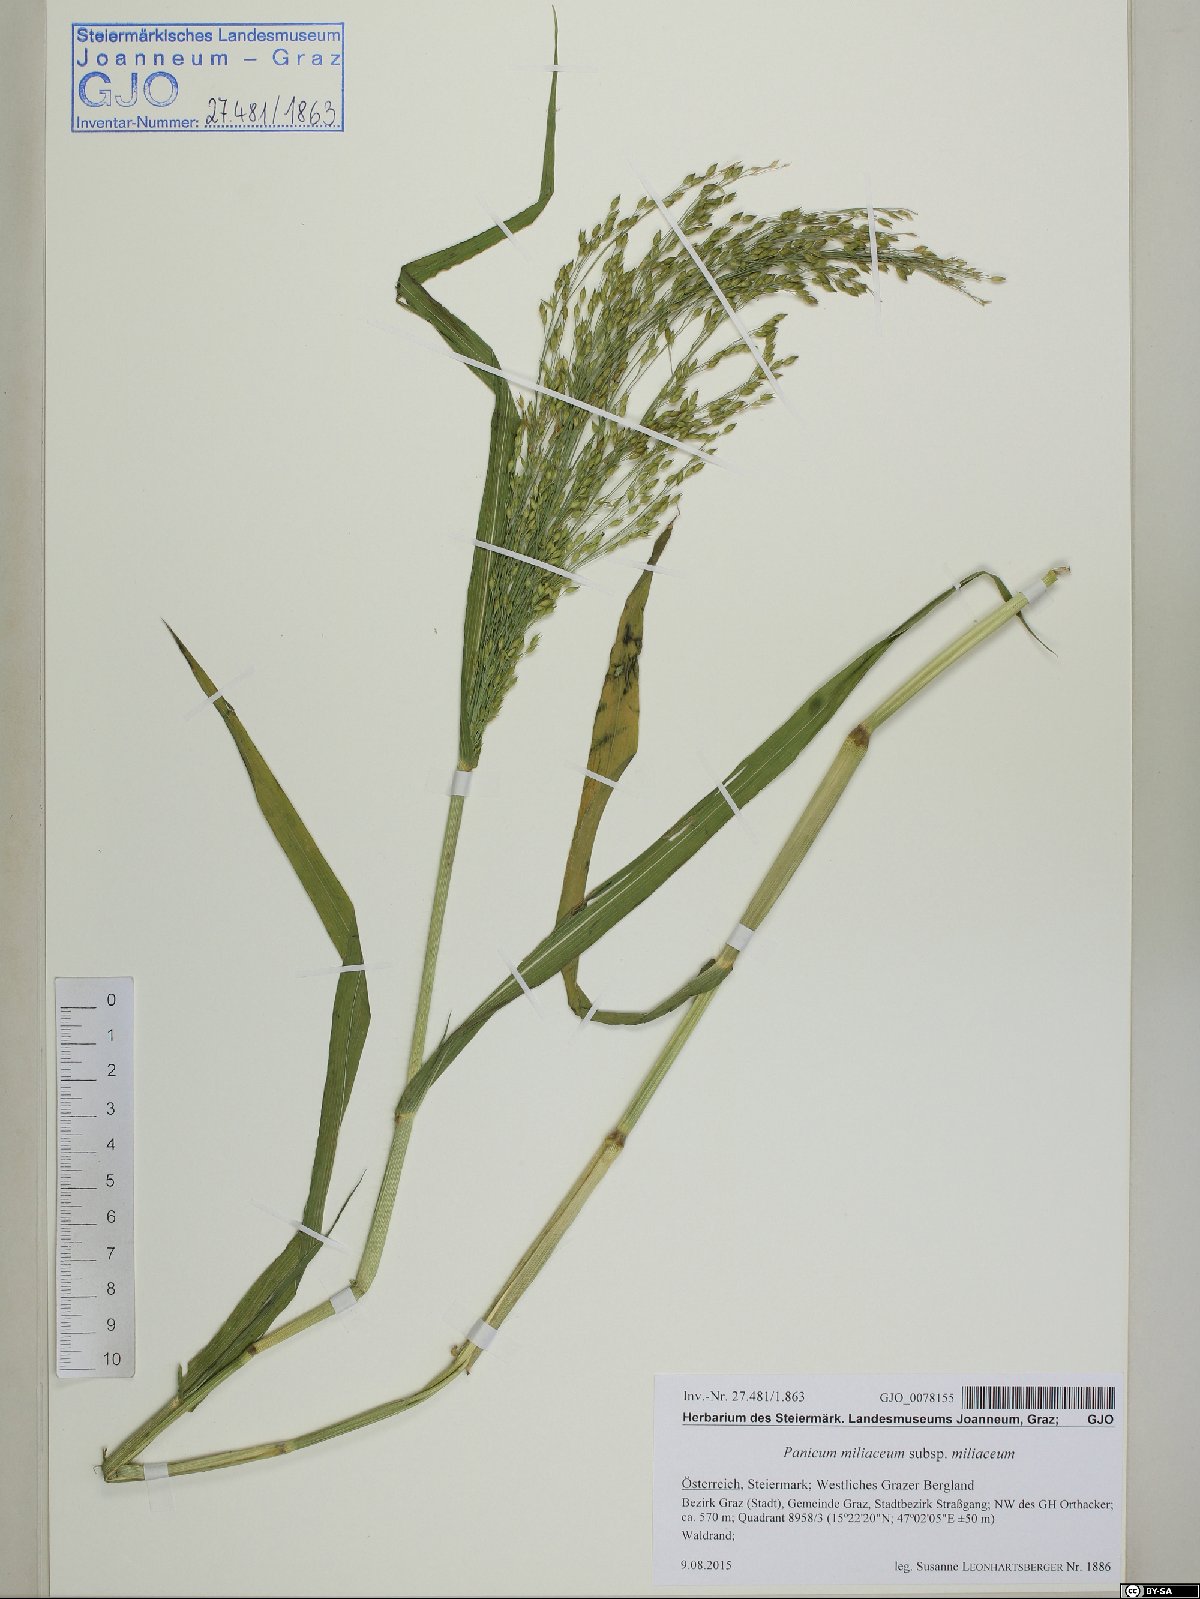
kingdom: Plantae
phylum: Tracheophyta
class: Liliopsida
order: Poales
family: Poaceae
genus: Panicum
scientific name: Panicum miliaceum
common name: Common millet
